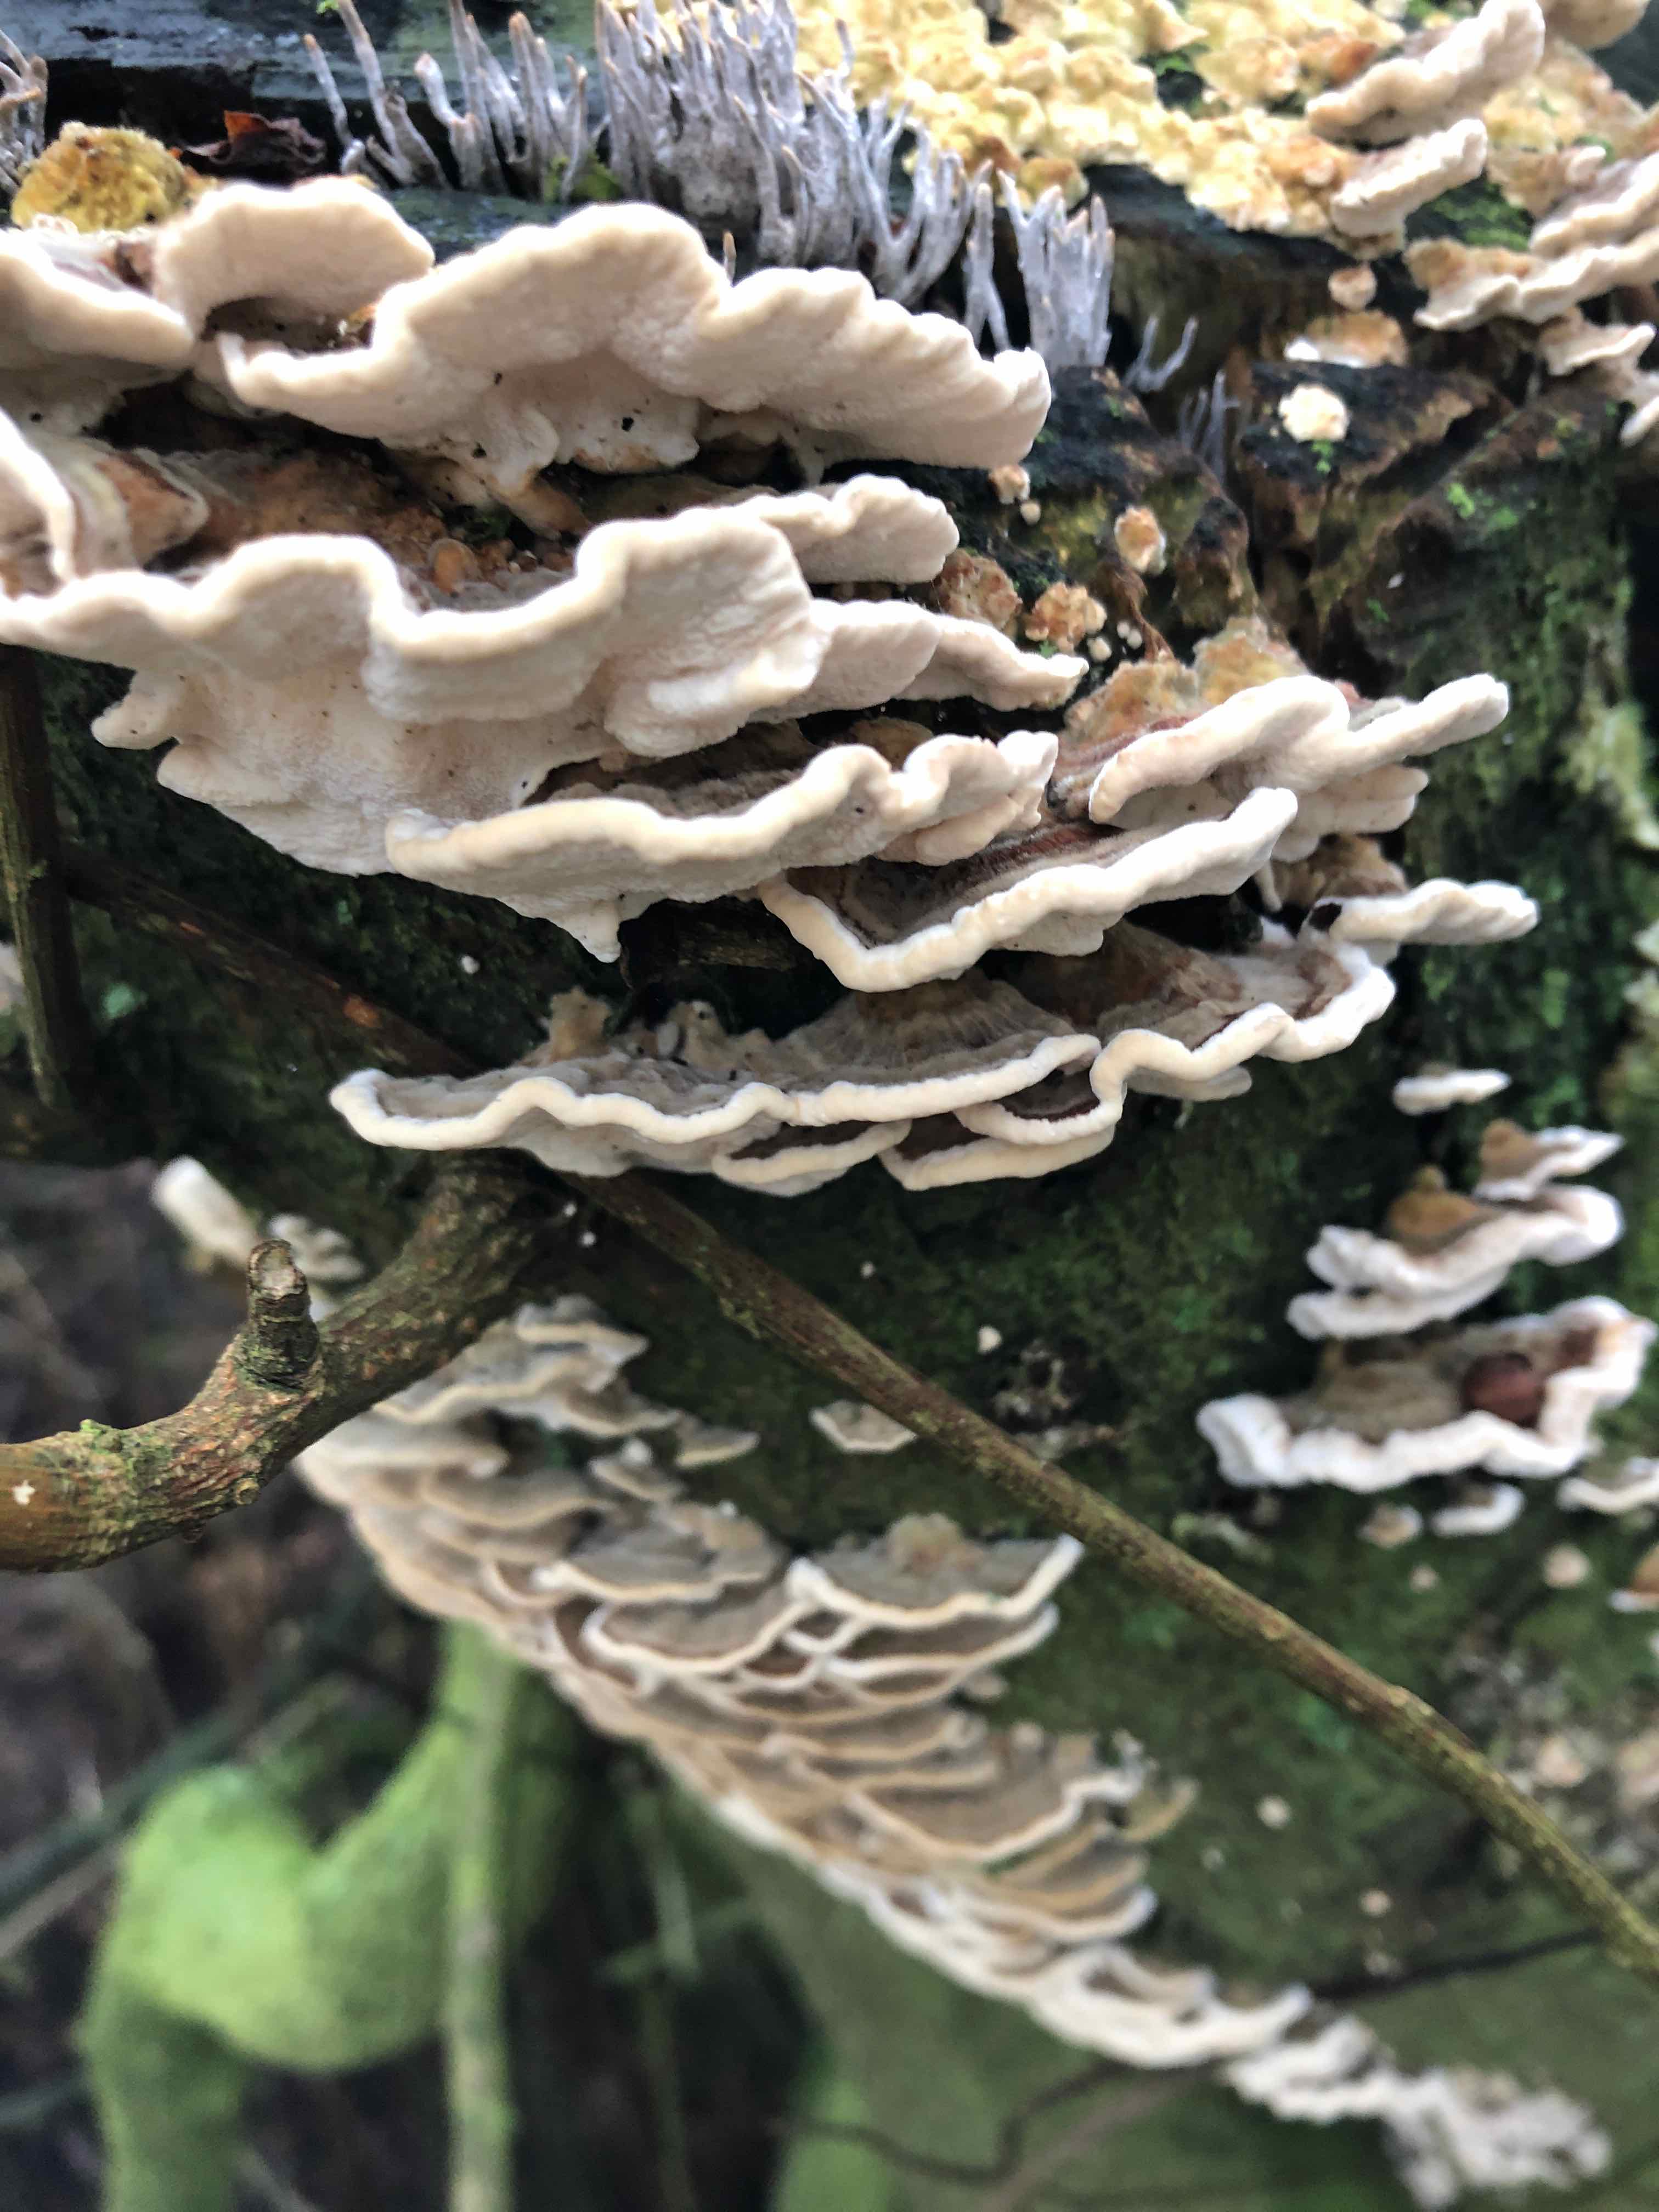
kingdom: Fungi
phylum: Basidiomycota
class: Agaricomycetes
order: Polyporales
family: Polyporaceae
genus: Trametes
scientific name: Trametes versicolor
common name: broget læderporesvamp
